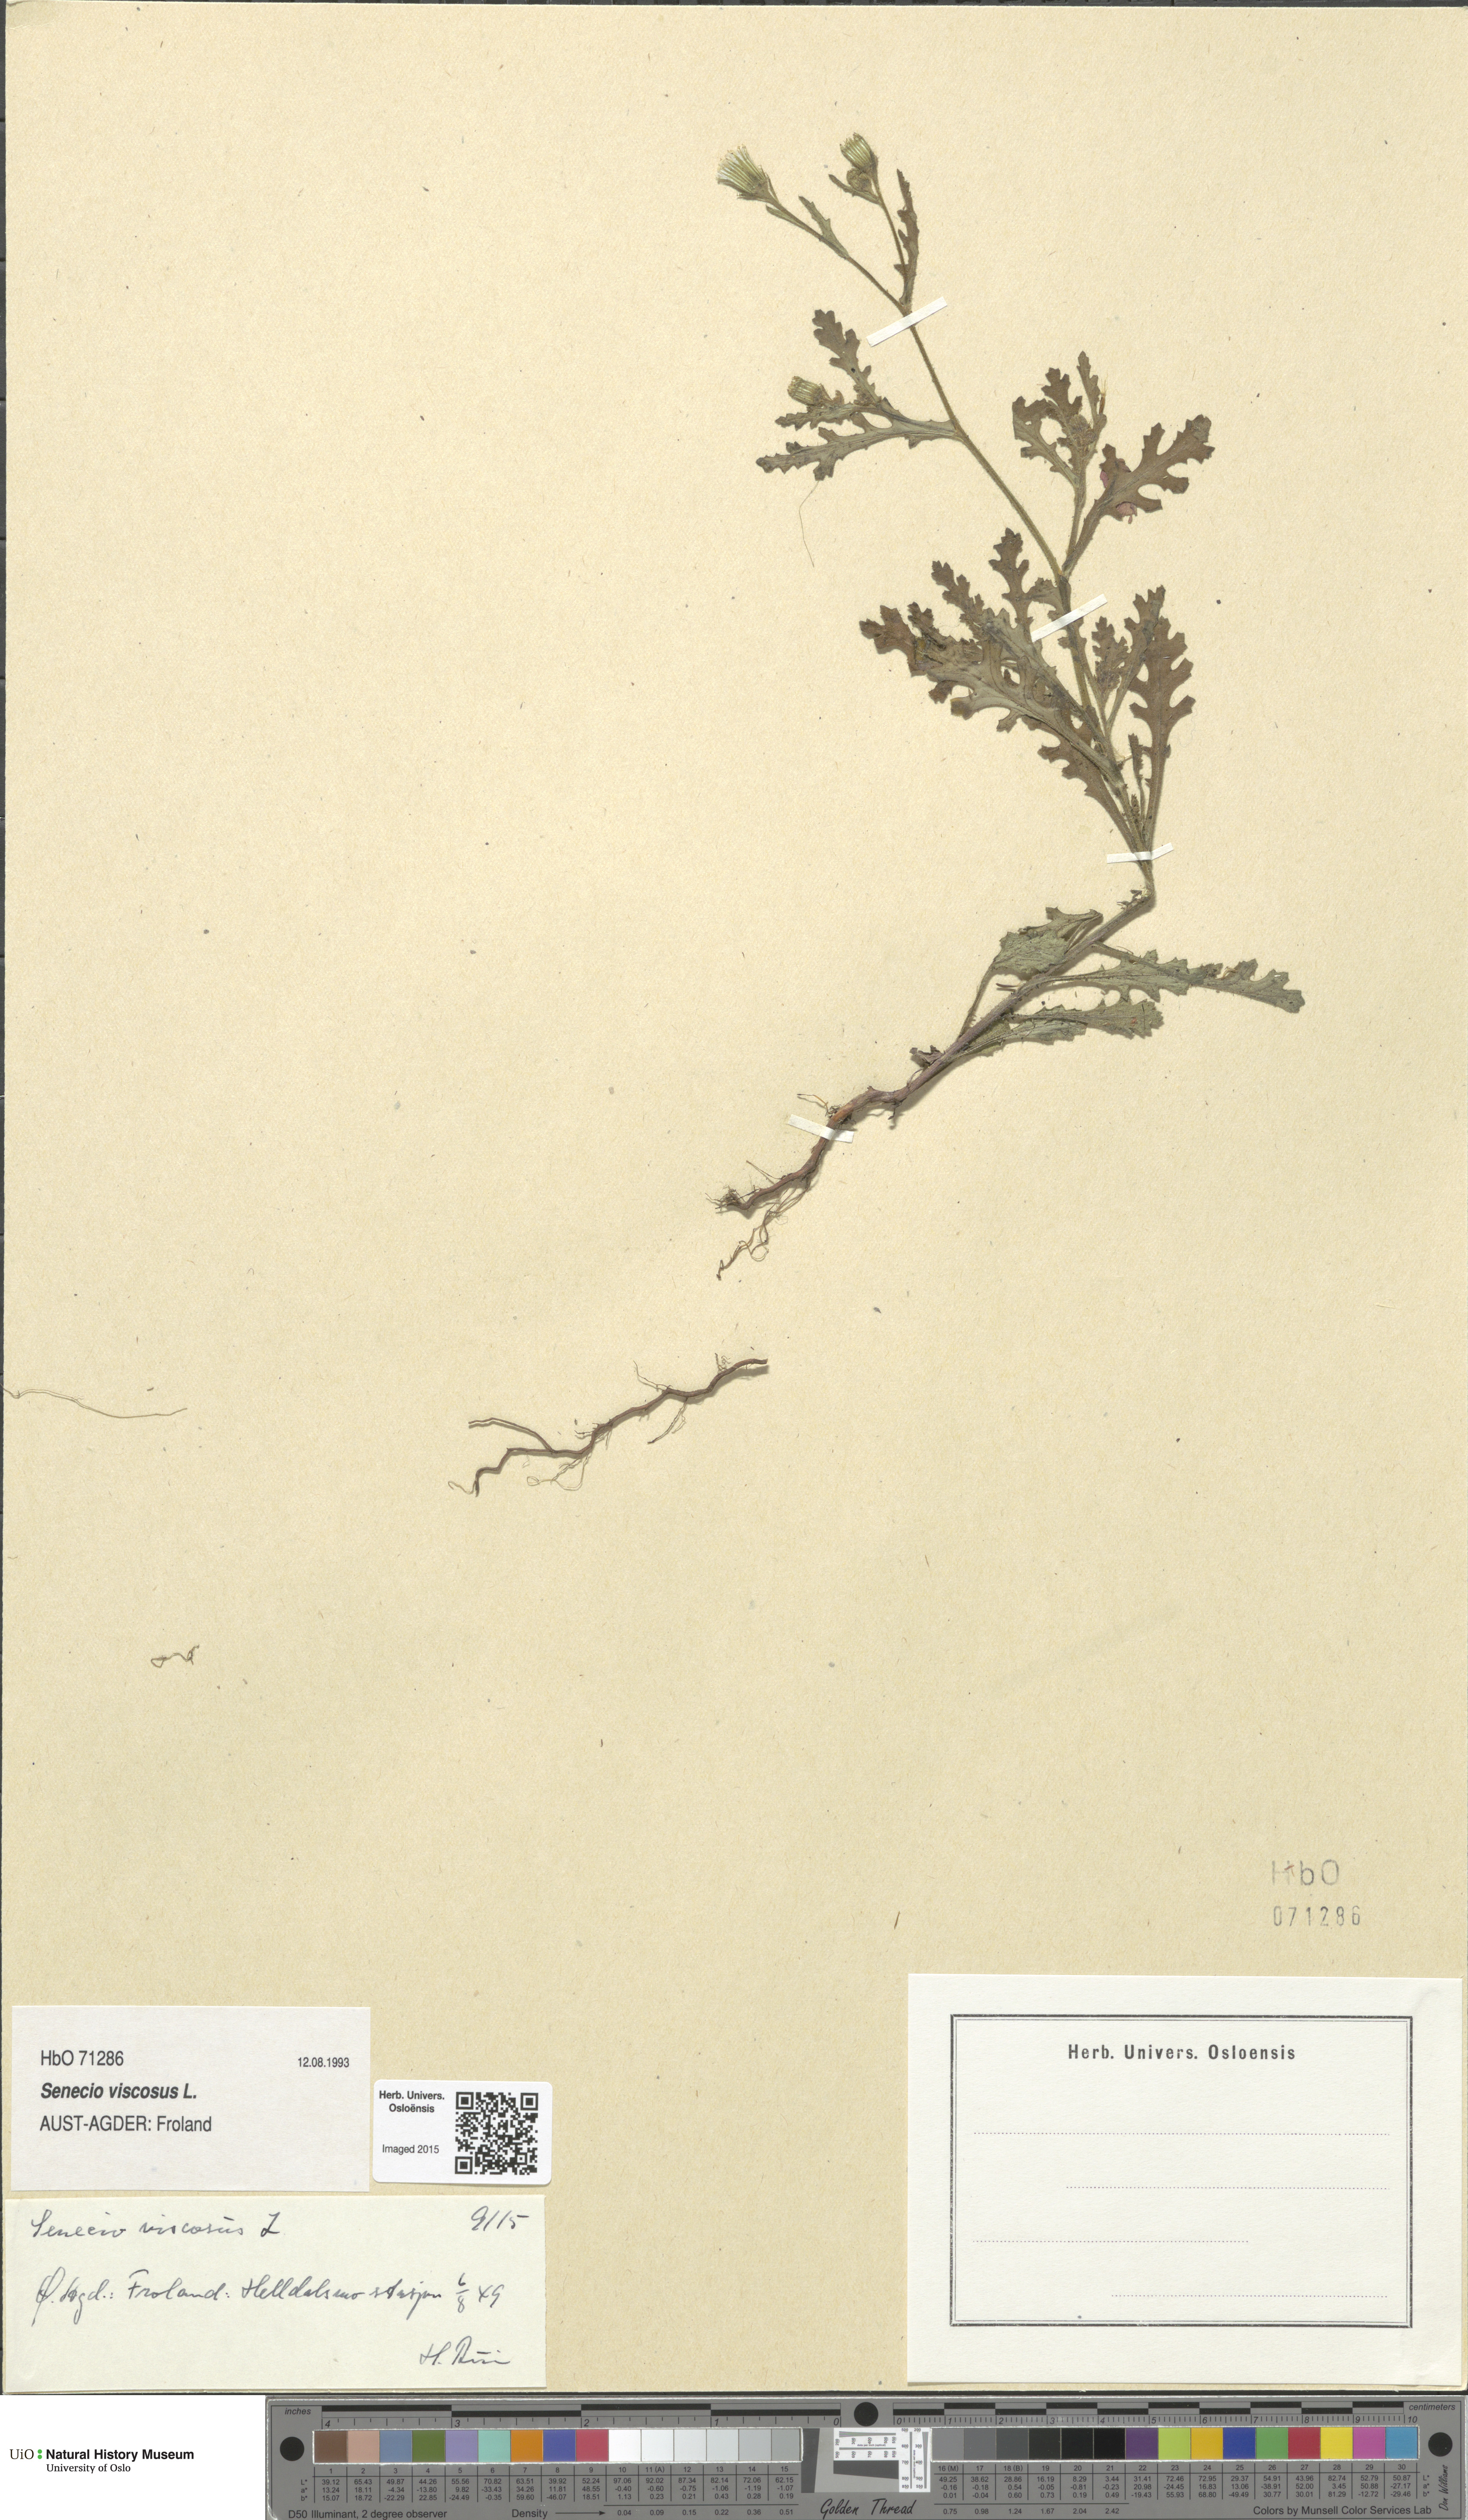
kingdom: Plantae
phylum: Tracheophyta
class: Magnoliopsida
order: Asterales
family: Asteraceae
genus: Senecio
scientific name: Senecio viscosus
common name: Sticky groundsel
